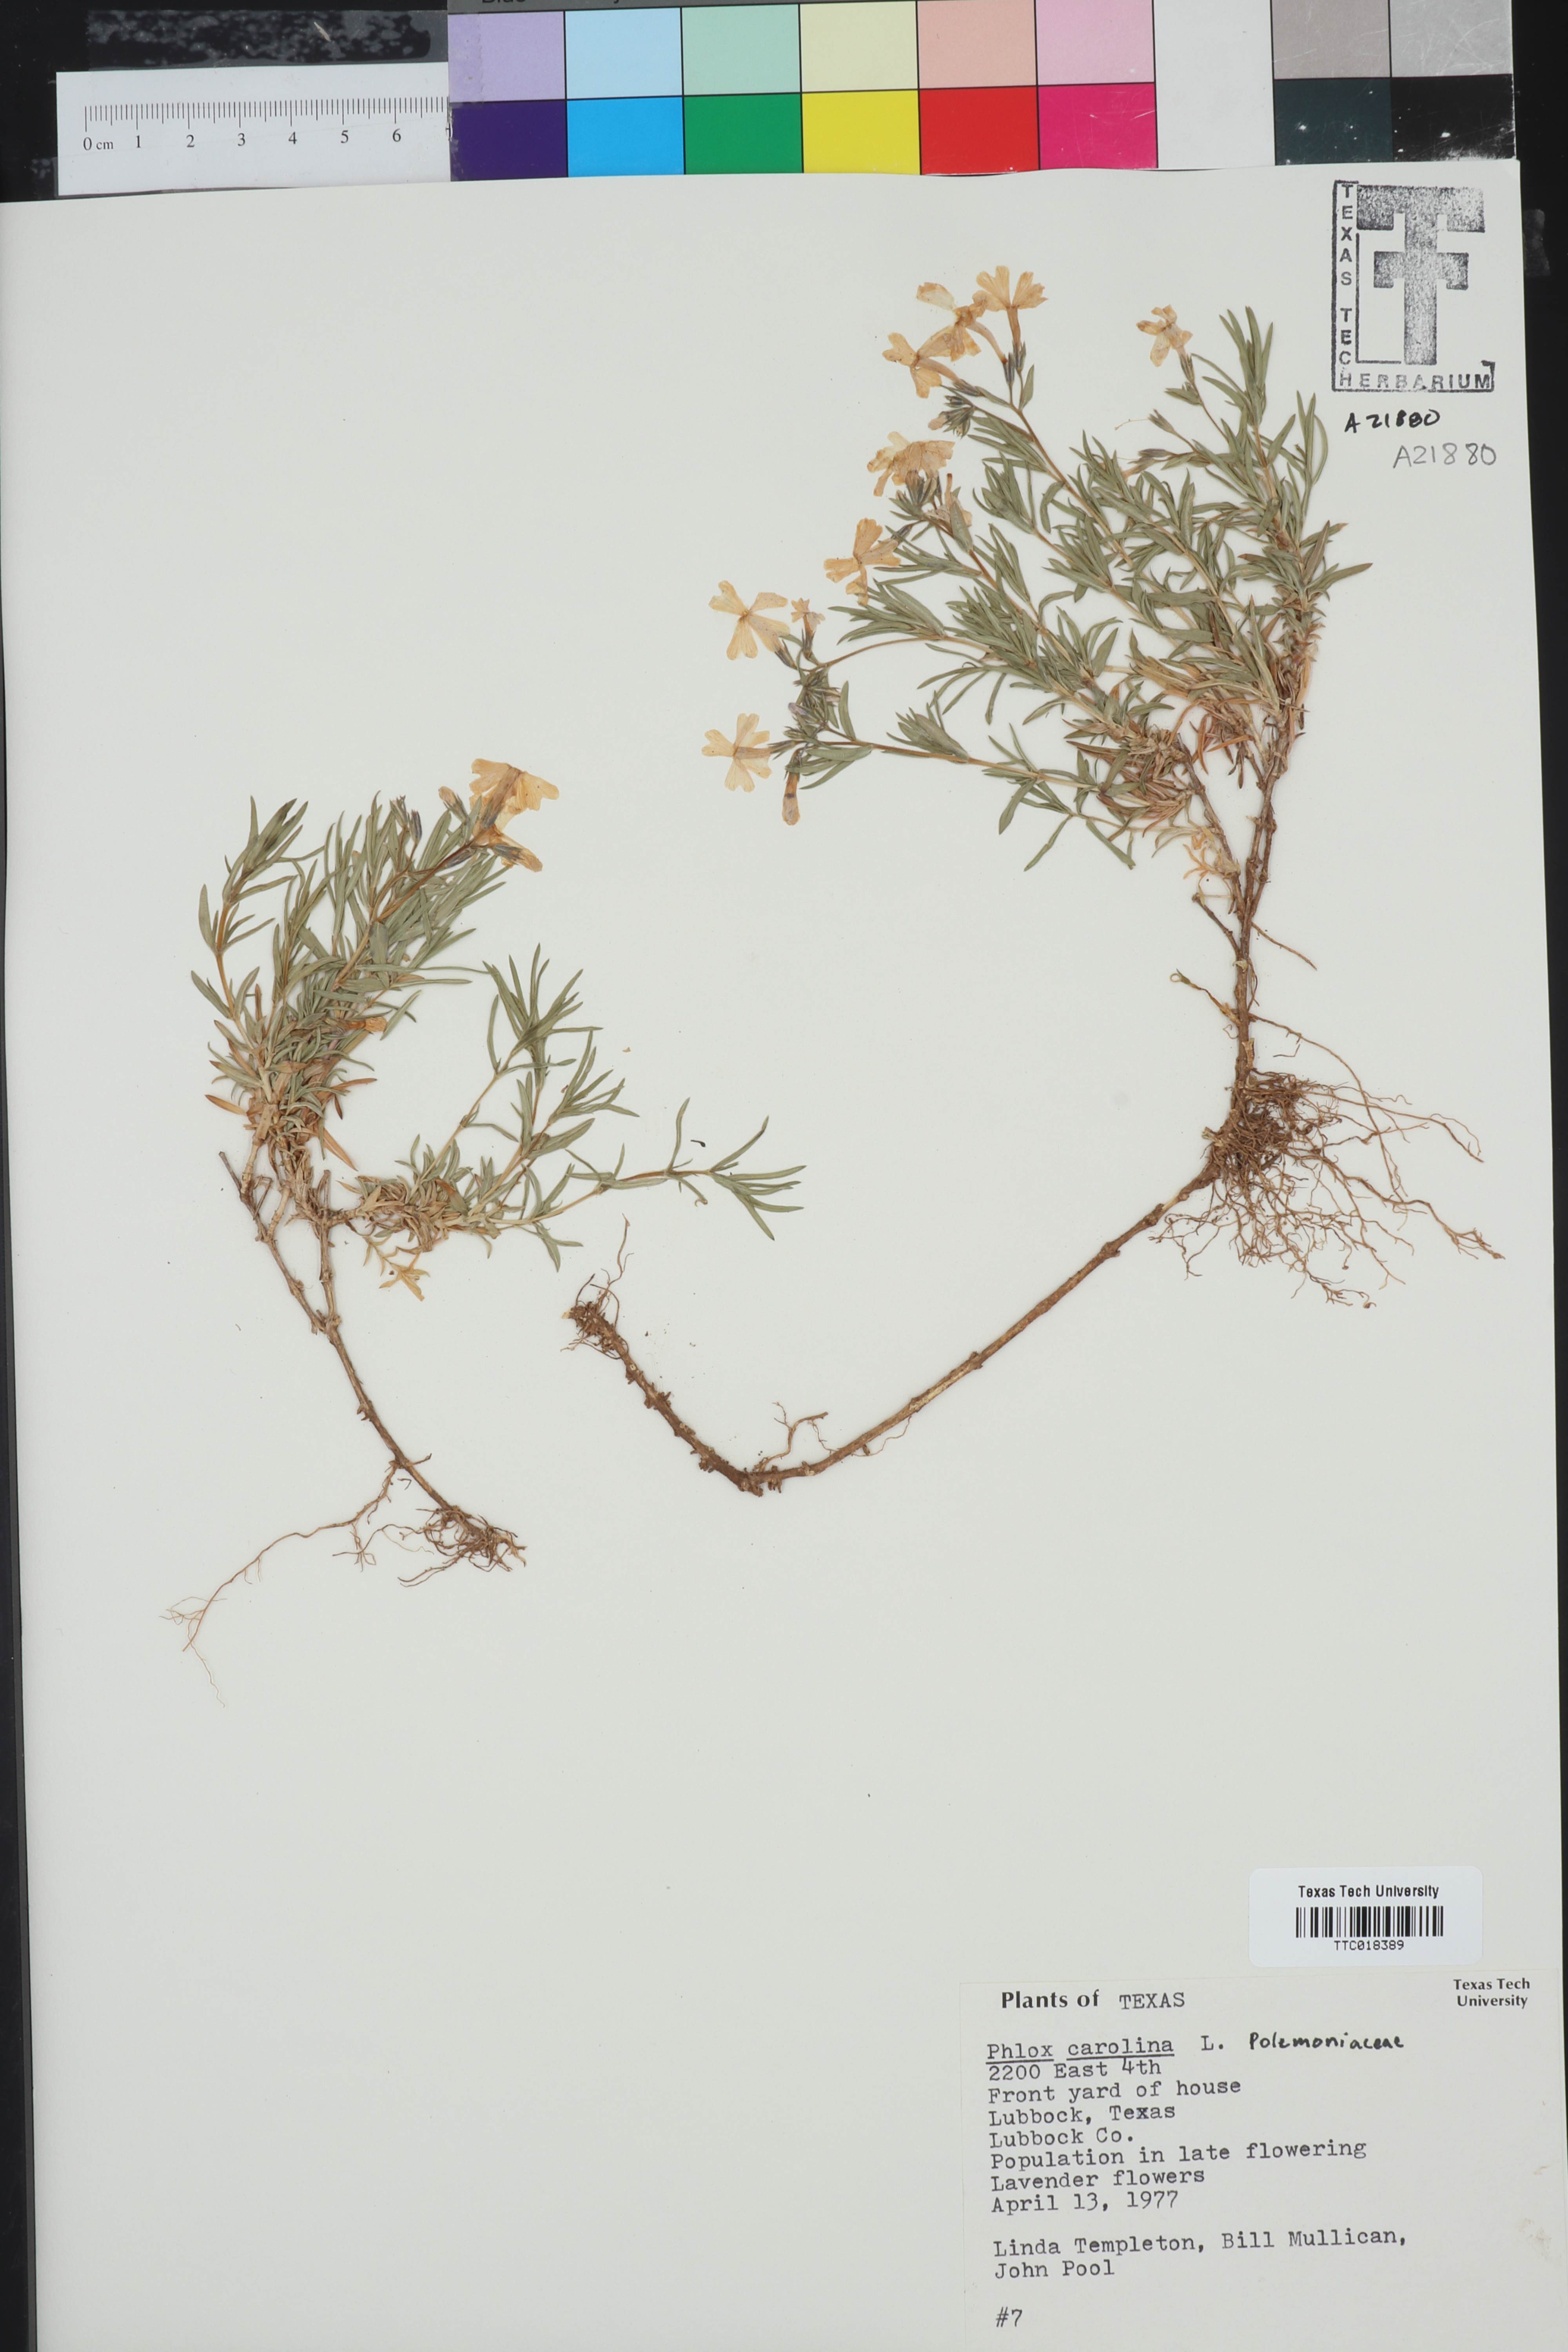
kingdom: Plantae
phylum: Tracheophyta
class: Magnoliopsida
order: Ericales
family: Polemoniaceae
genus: Phlox
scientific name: Phlox carolina
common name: Thick-leaf phlox
